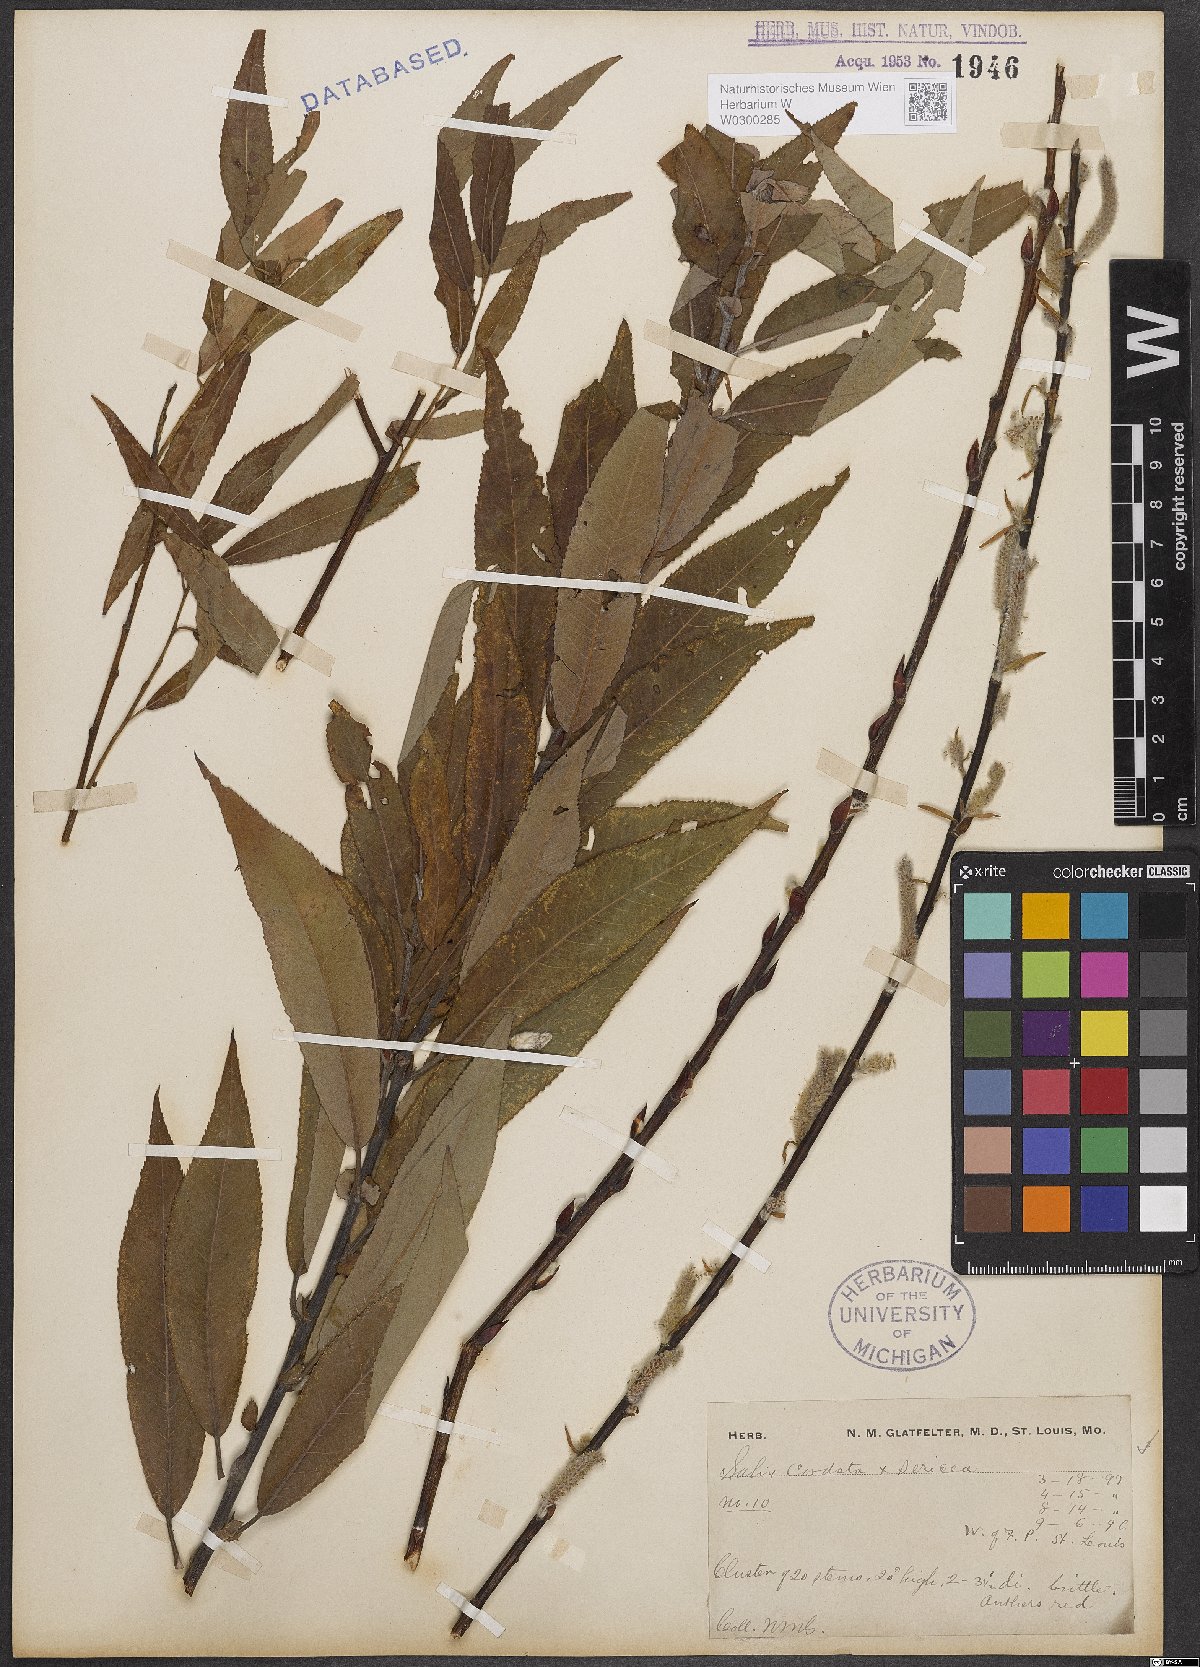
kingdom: Plantae
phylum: Tracheophyta
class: Magnoliopsida
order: Malpighiales
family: Salicaceae
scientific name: Salicaceae
